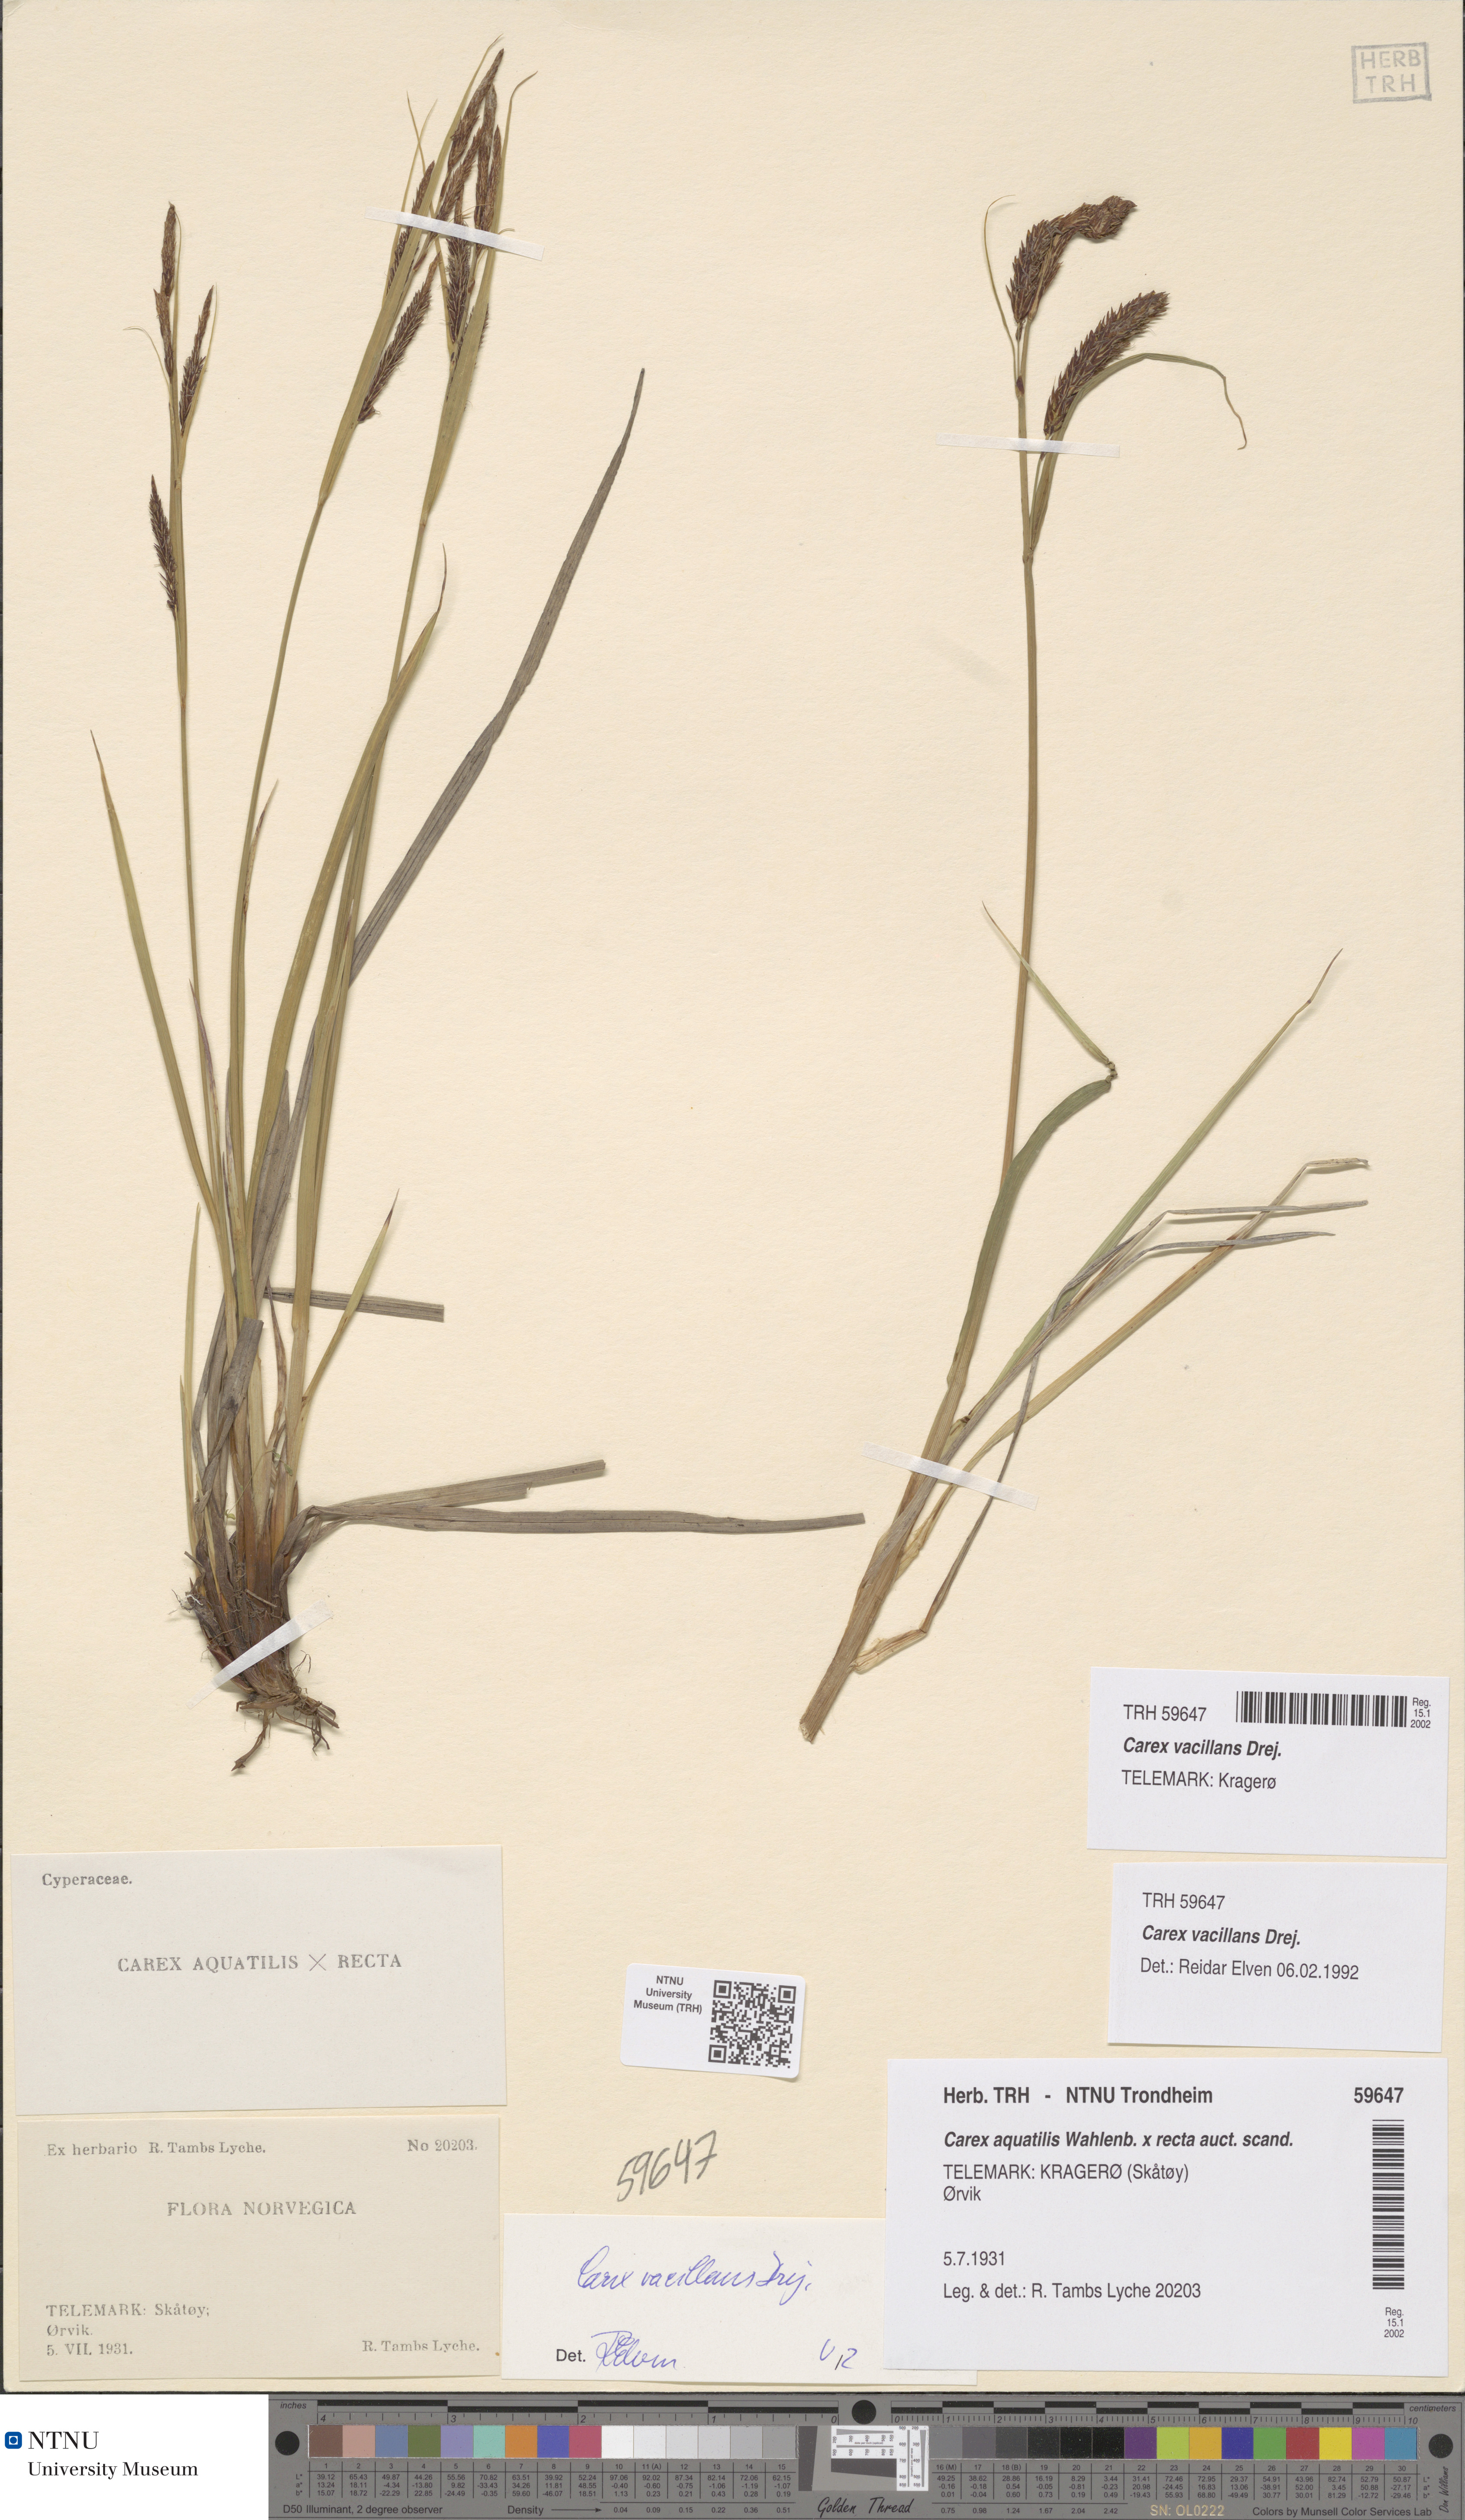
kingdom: Plantae
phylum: Tracheophyta
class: Liliopsida
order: Poales
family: Cyperaceae
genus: Carex
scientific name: Carex vacillans
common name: Sedge
